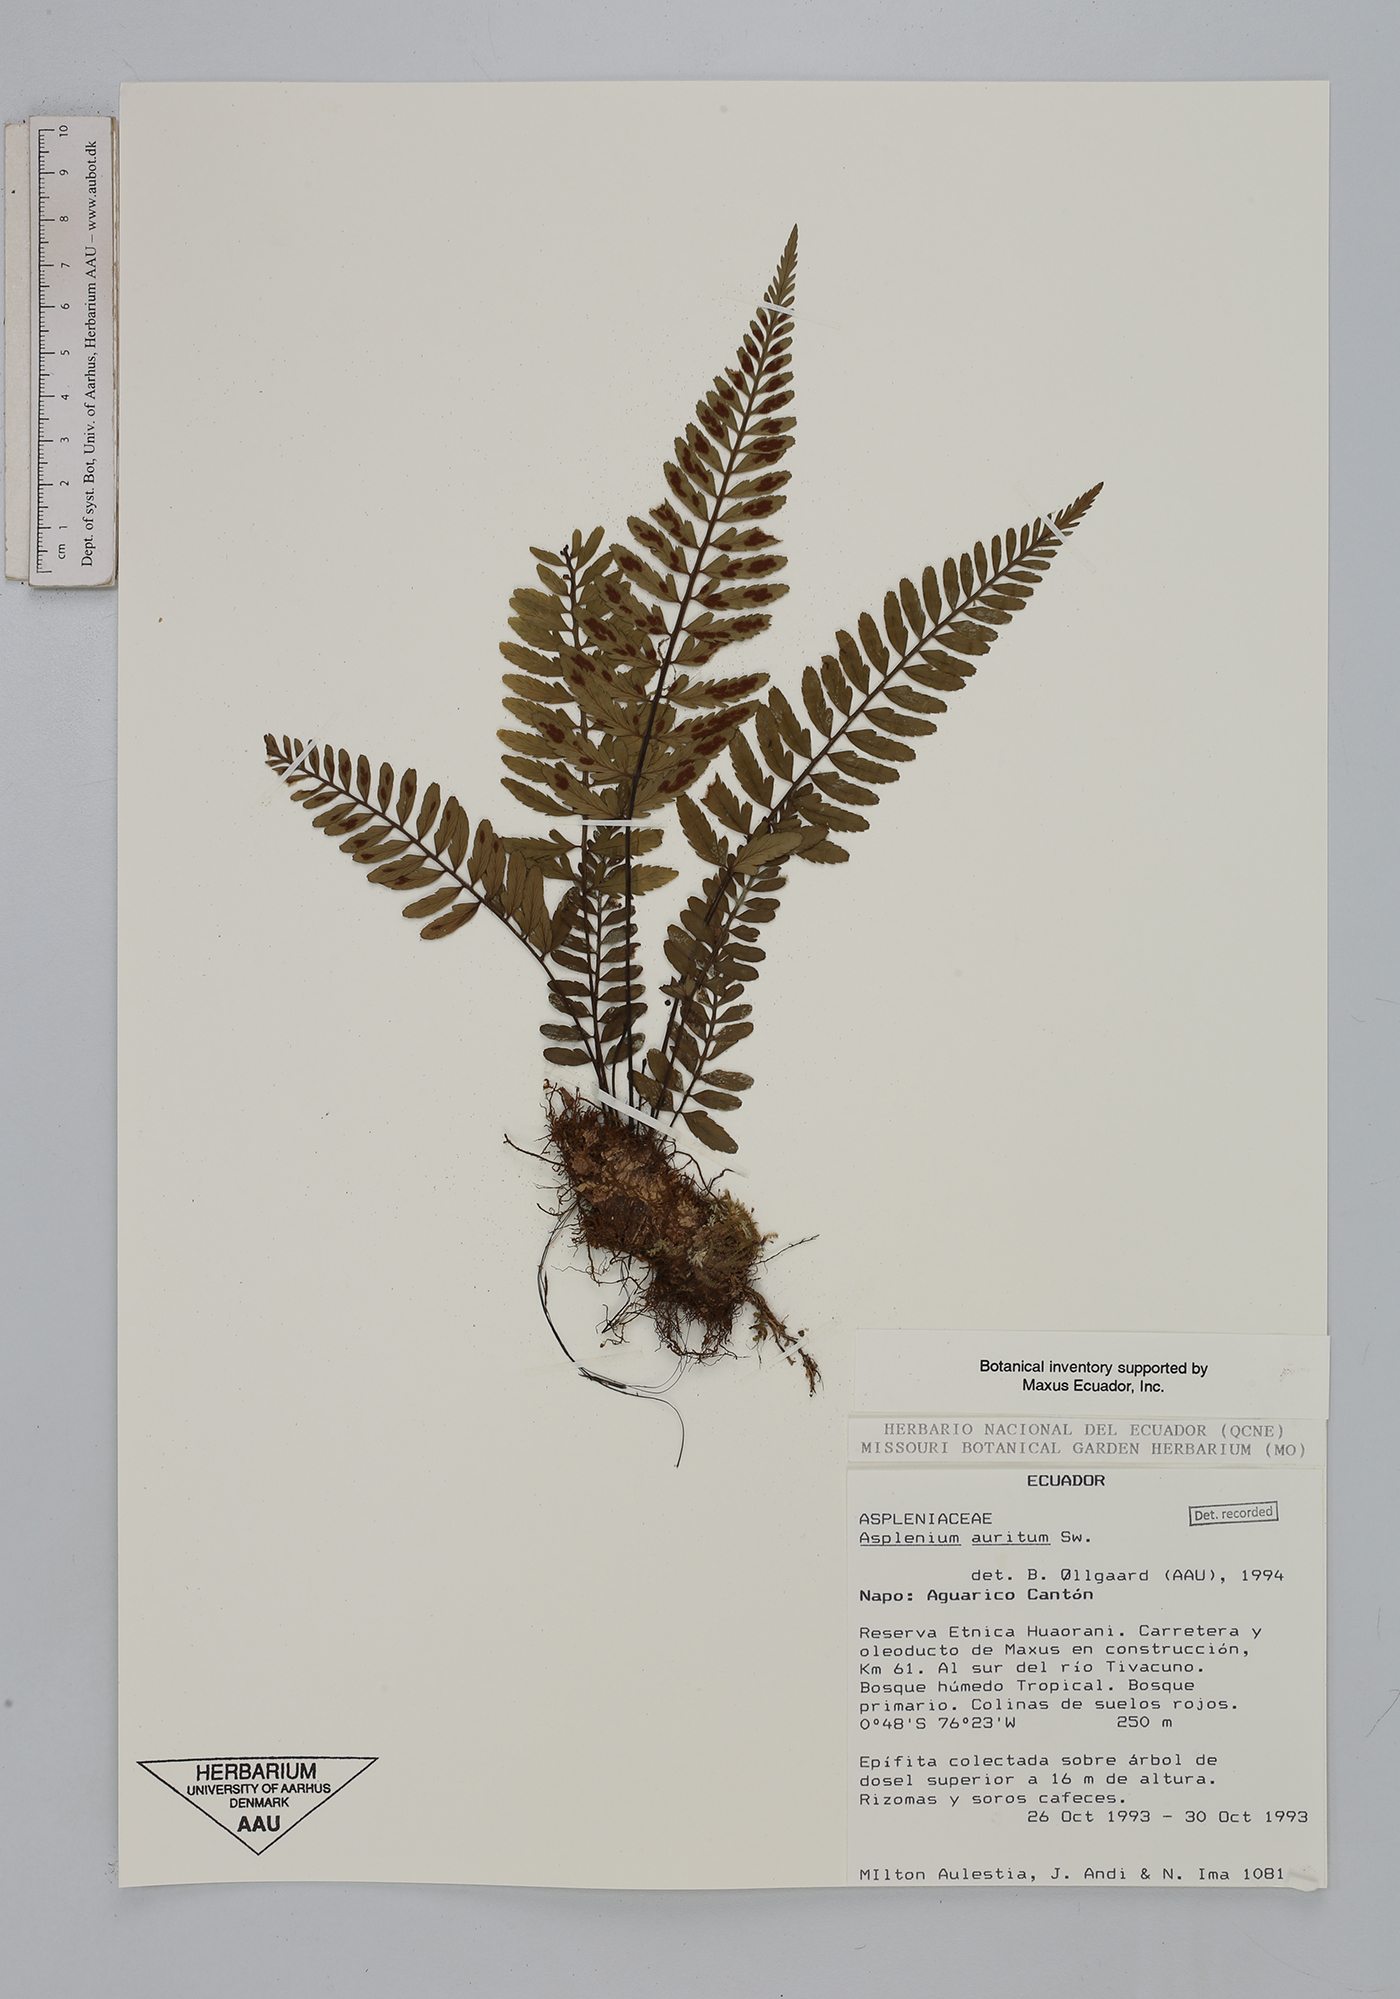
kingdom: Plantae
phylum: Tracheophyta
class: Polypodiopsida
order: Polypodiales
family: Aspleniaceae
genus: Asplenium
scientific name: Asplenium auritum
